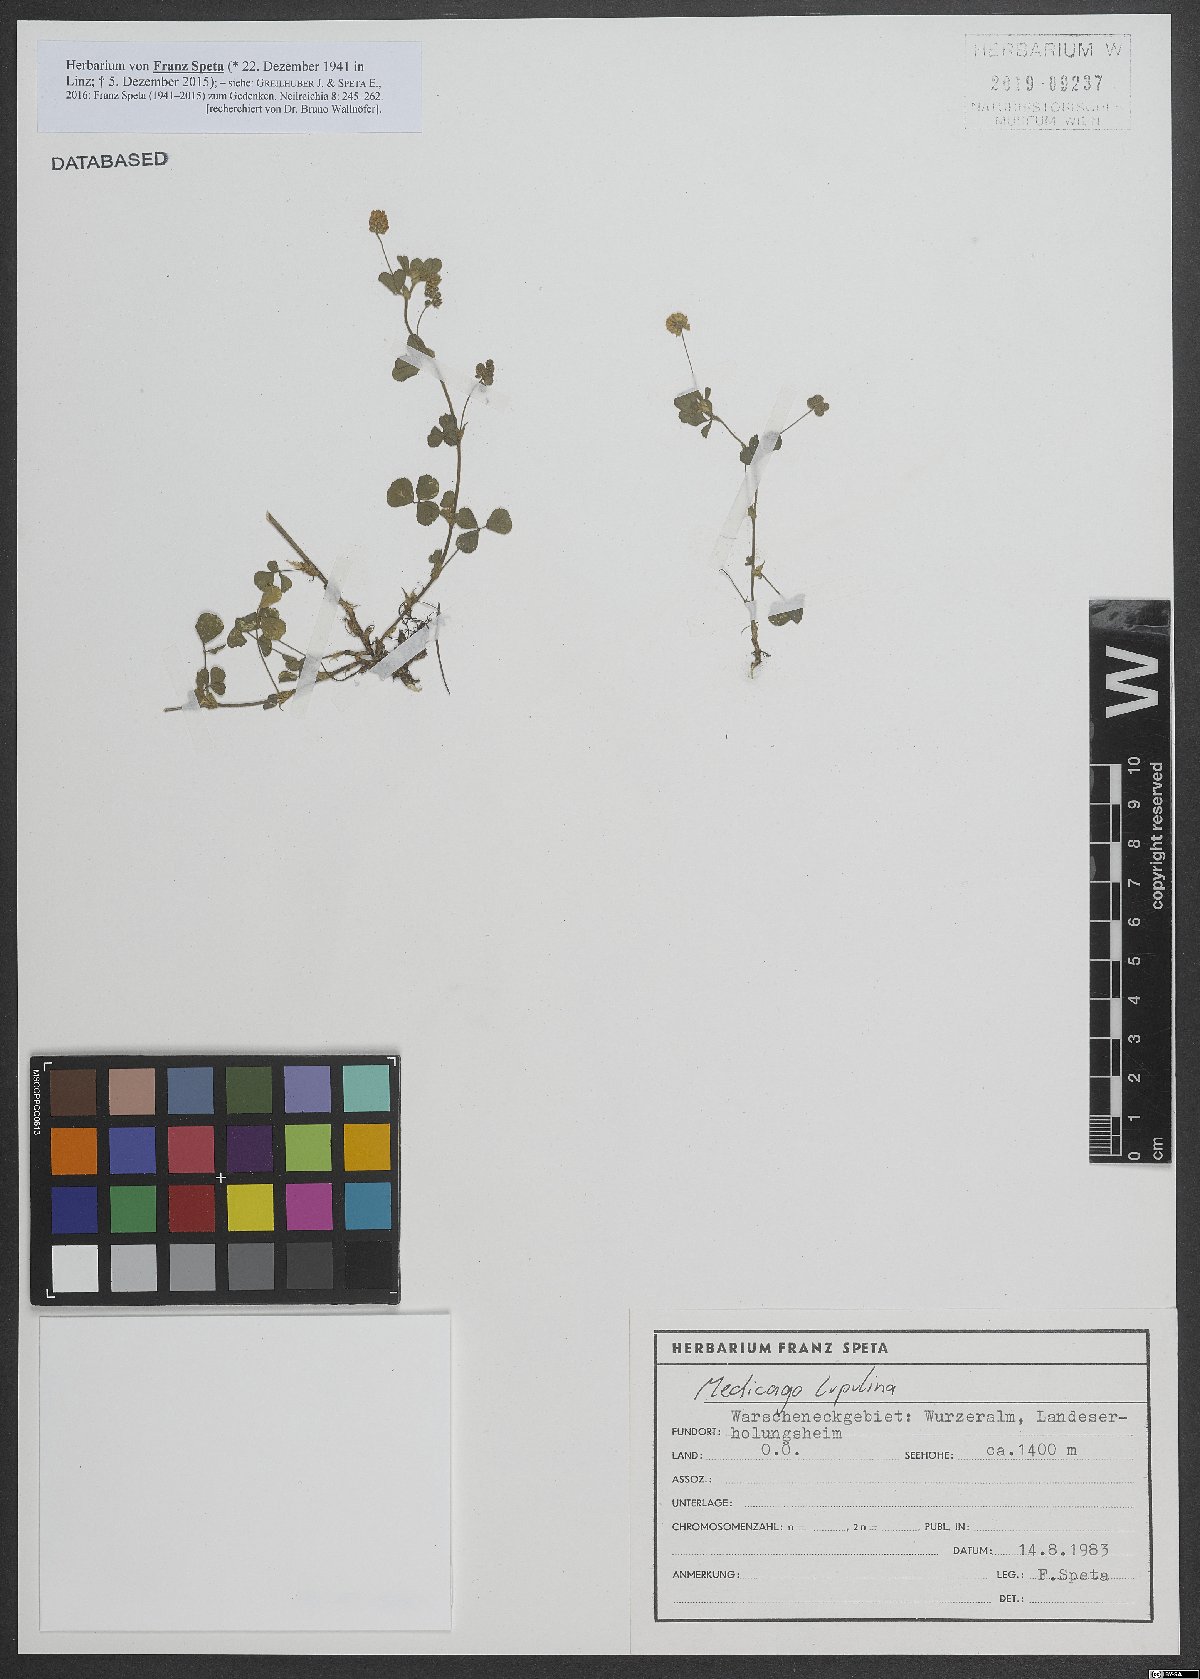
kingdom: Plantae
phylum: Tracheophyta
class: Magnoliopsida
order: Fabales
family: Fabaceae
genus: Medicago
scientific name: Medicago lupulina
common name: Black medick
